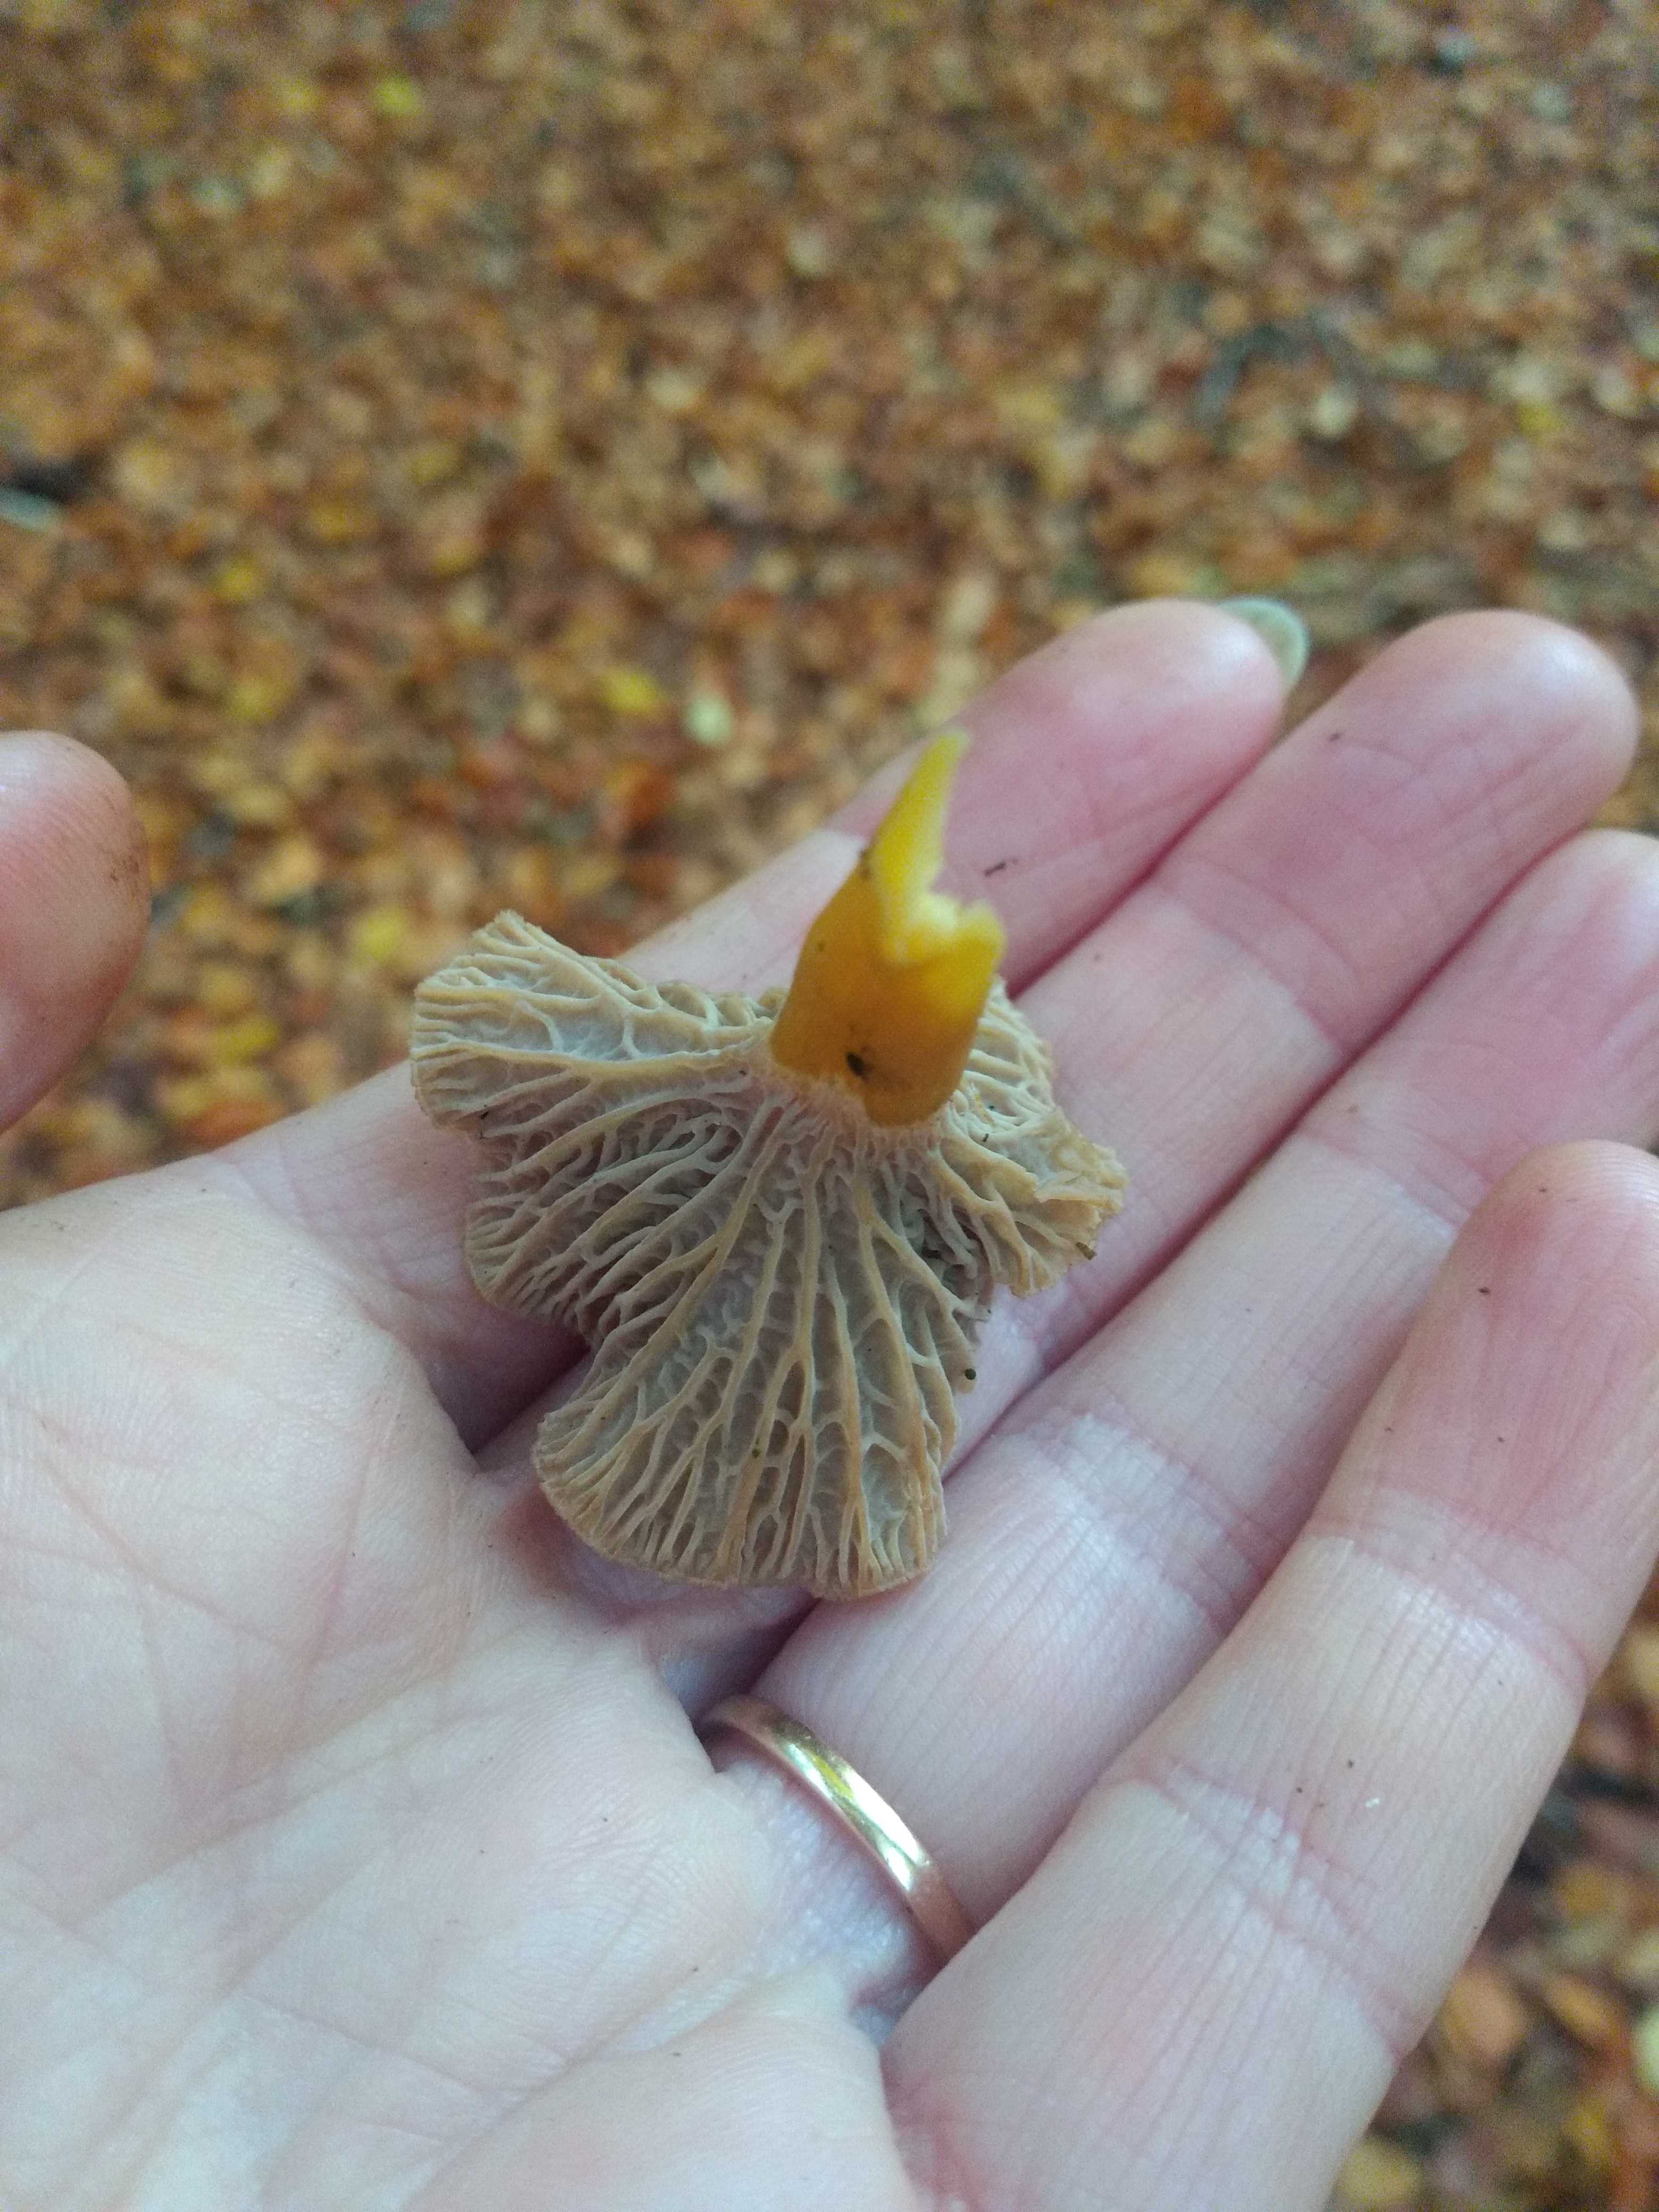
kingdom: Fungi
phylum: Basidiomycota
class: Agaricomycetes
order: Cantharellales
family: Hydnaceae
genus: Craterellus
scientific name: Craterellus tubaeformis
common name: tragt-kantarel
